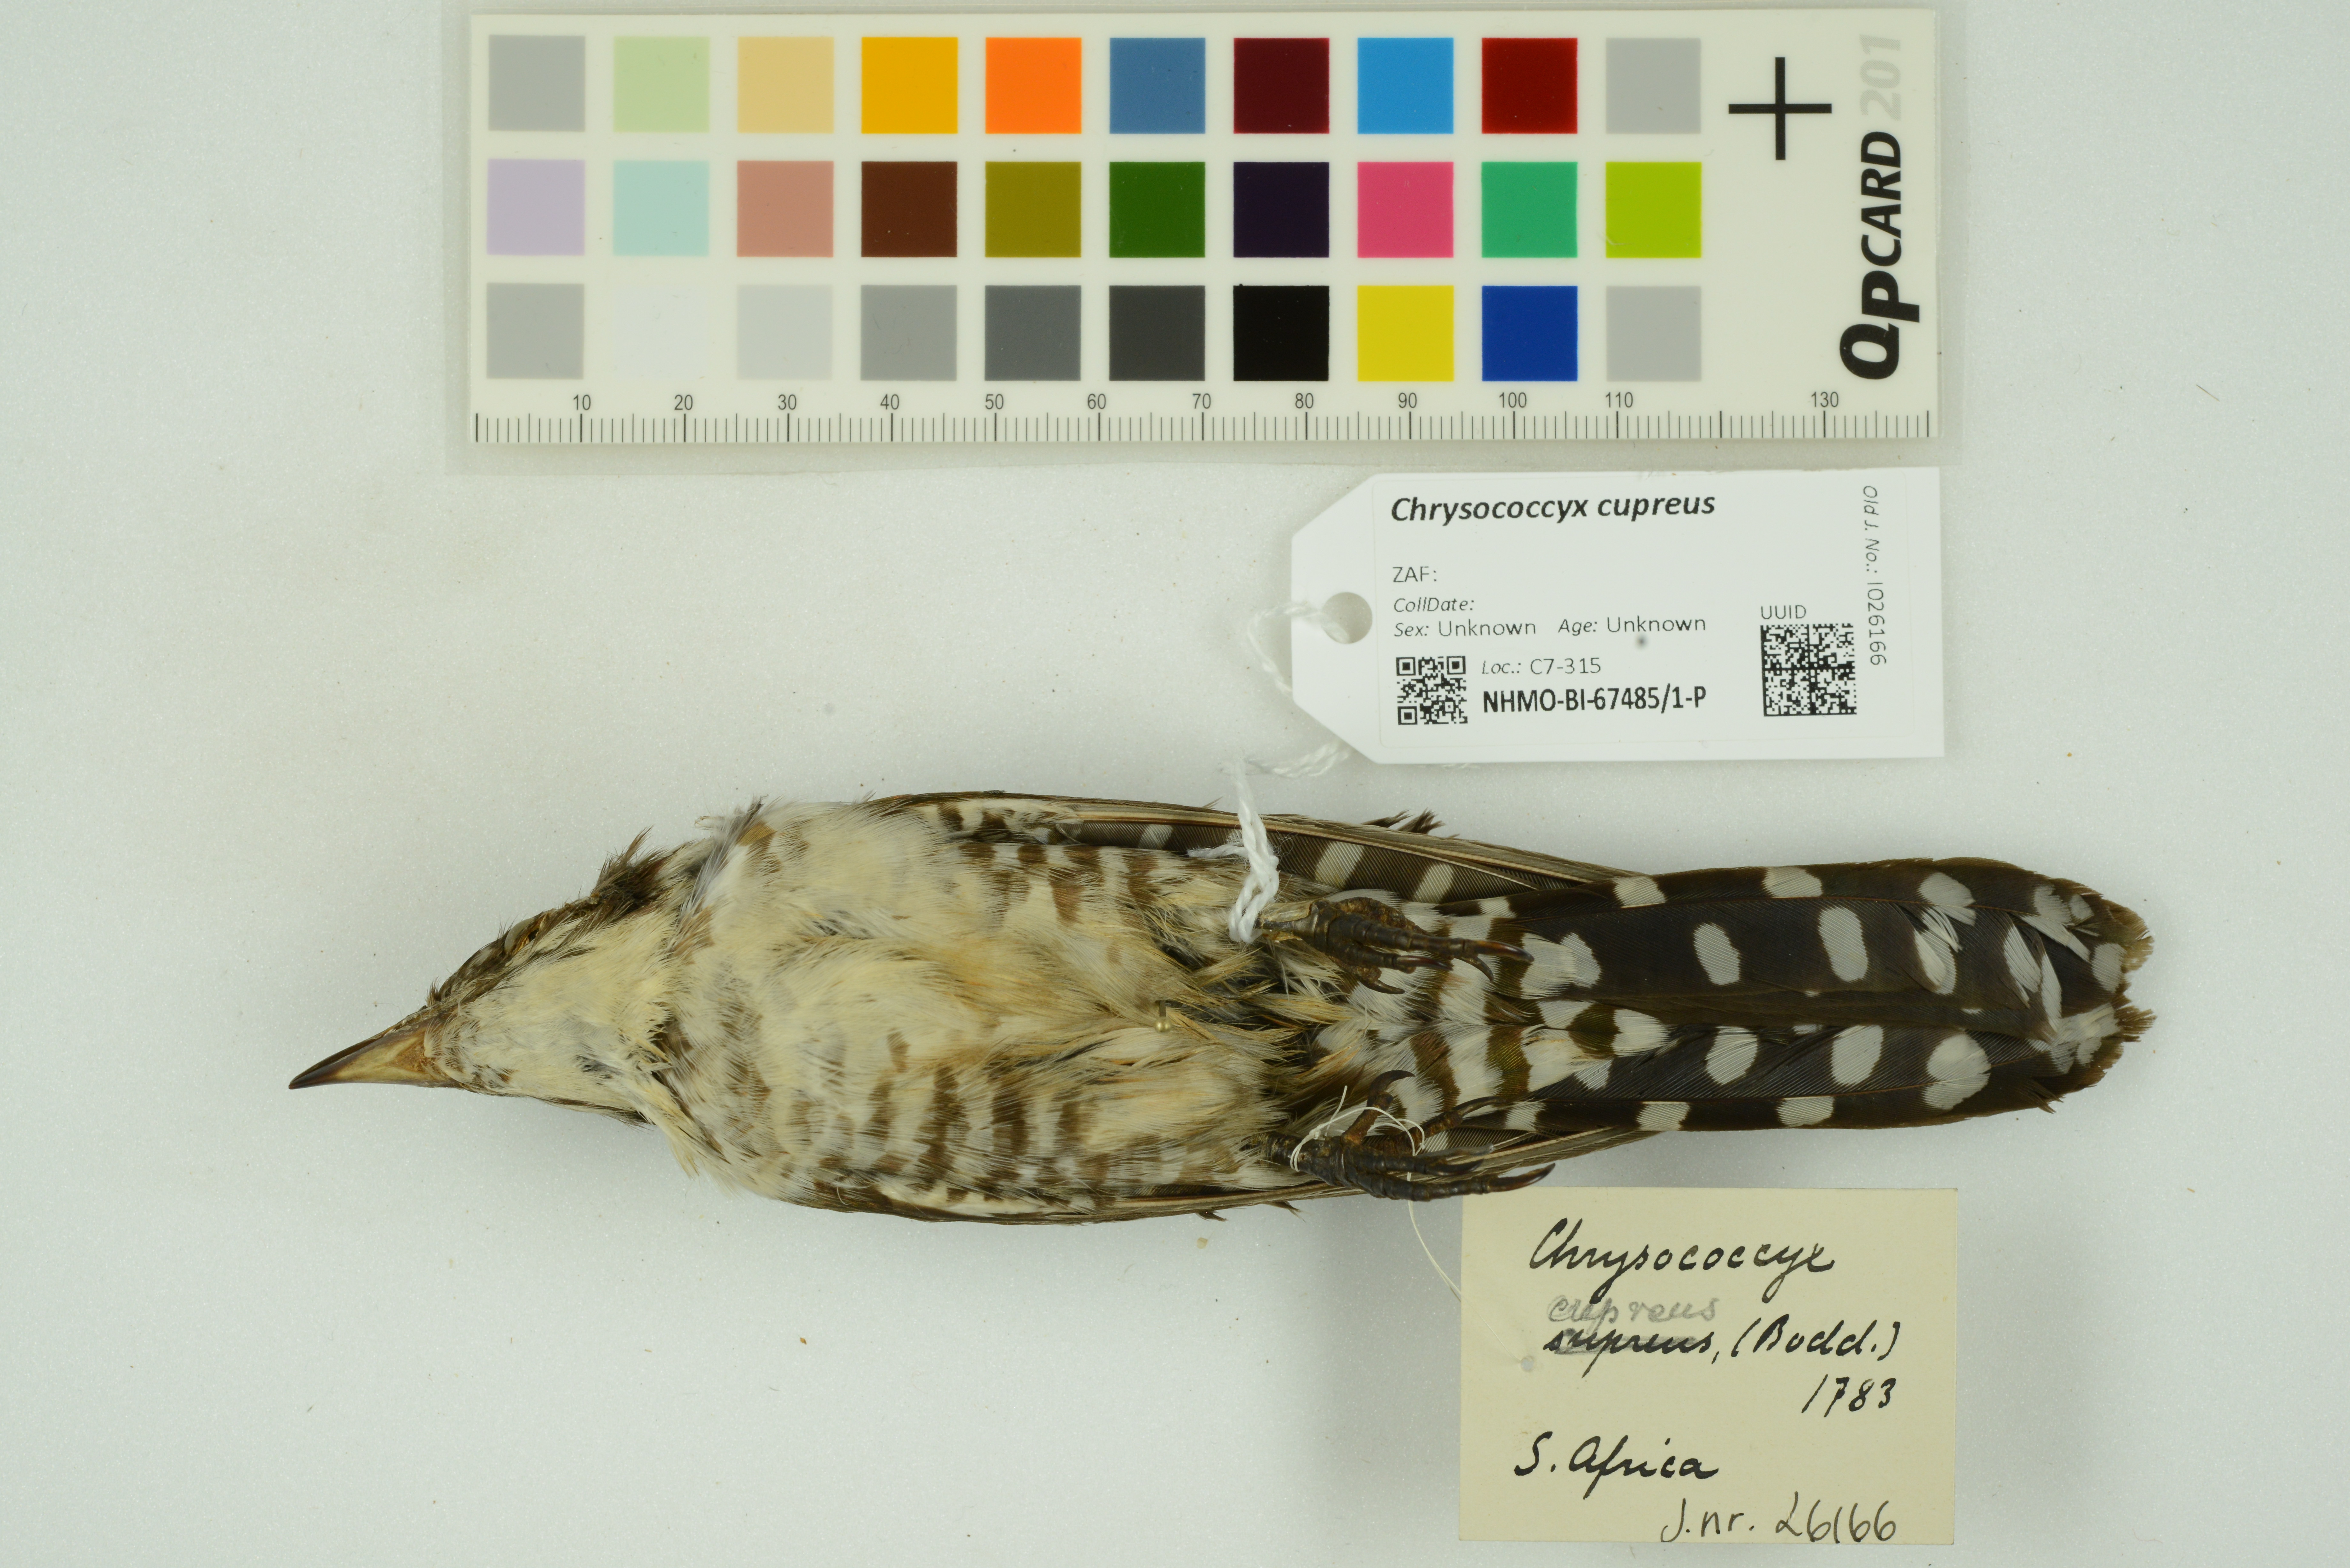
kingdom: Animalia
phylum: Chordata
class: Aves
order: Cuculiformes
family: Cuculidae
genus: Chrysococcyx
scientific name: Chrysococcyx cupreus
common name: African emerald cuckoo
